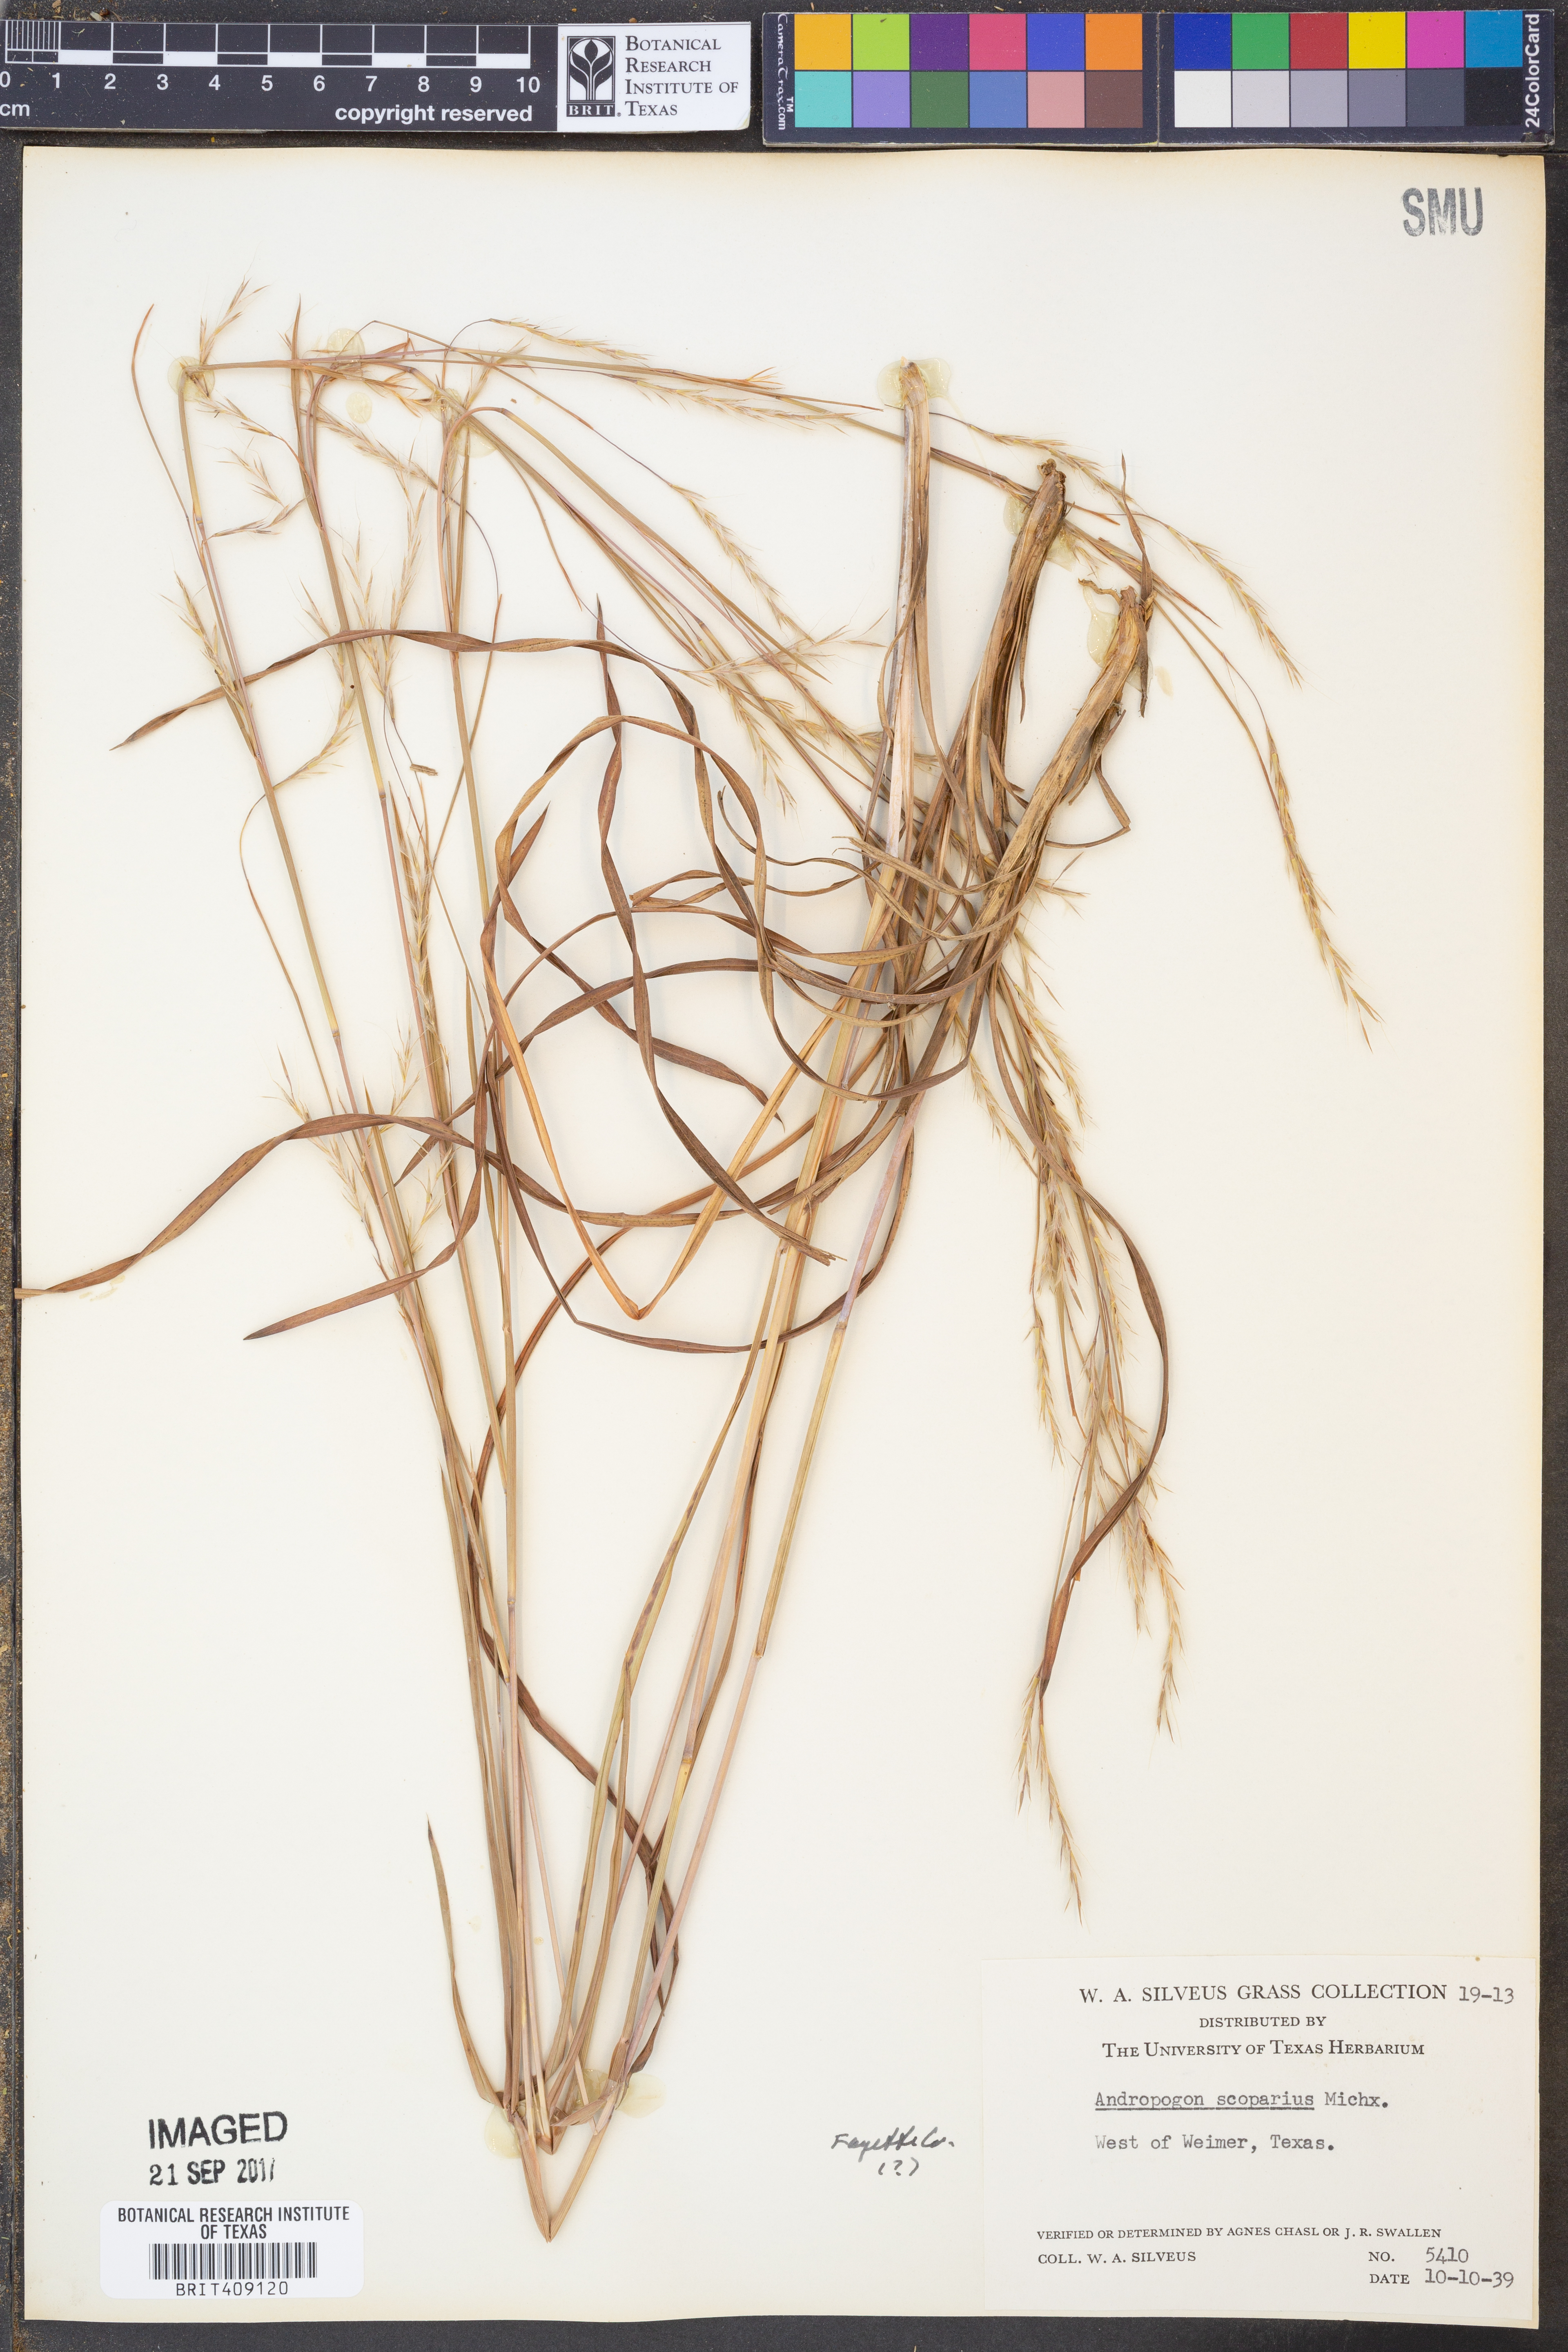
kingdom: Plantae
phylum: Tracheophyta
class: Liliopsida
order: Poales
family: Poaceae
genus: Schizachyrium
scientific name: Schizachyrium scoparium
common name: Little bluestem
